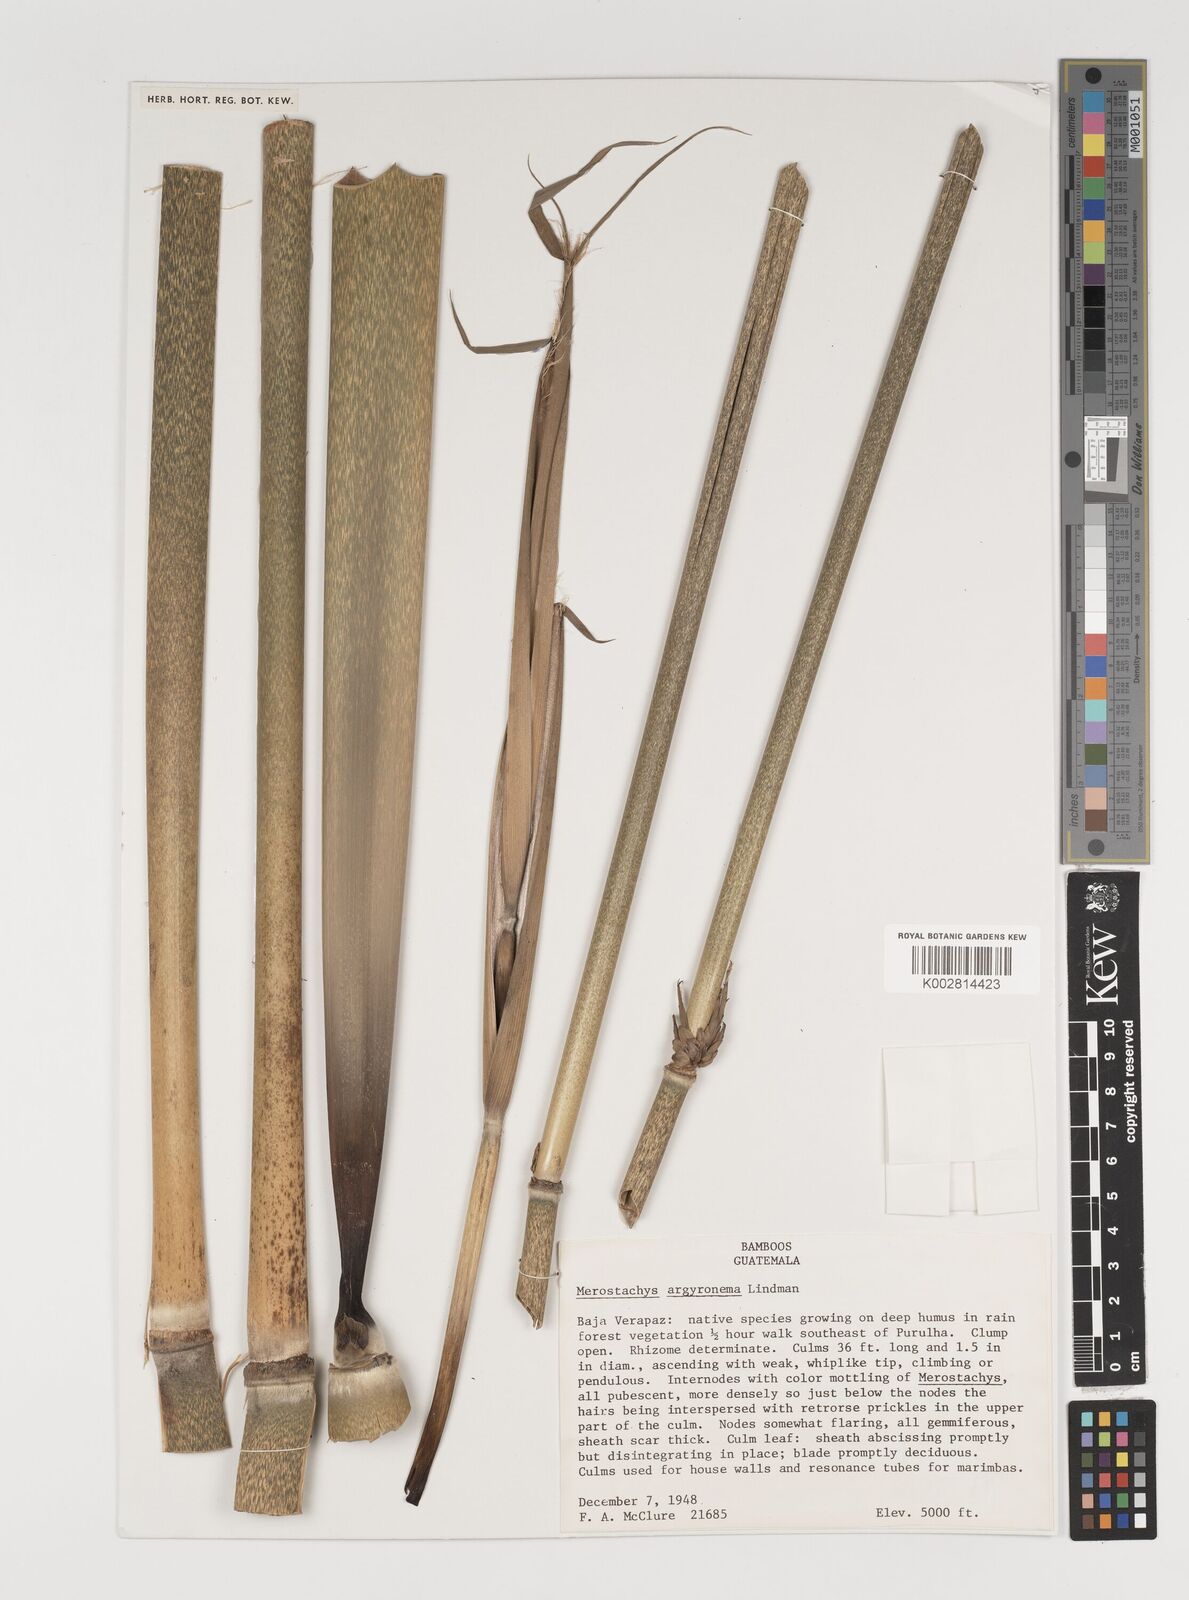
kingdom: Plantae
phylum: Tracheophyta
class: Liliopsida
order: Poales
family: Poaceae
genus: Merostachys
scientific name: Merostachys argyronema
